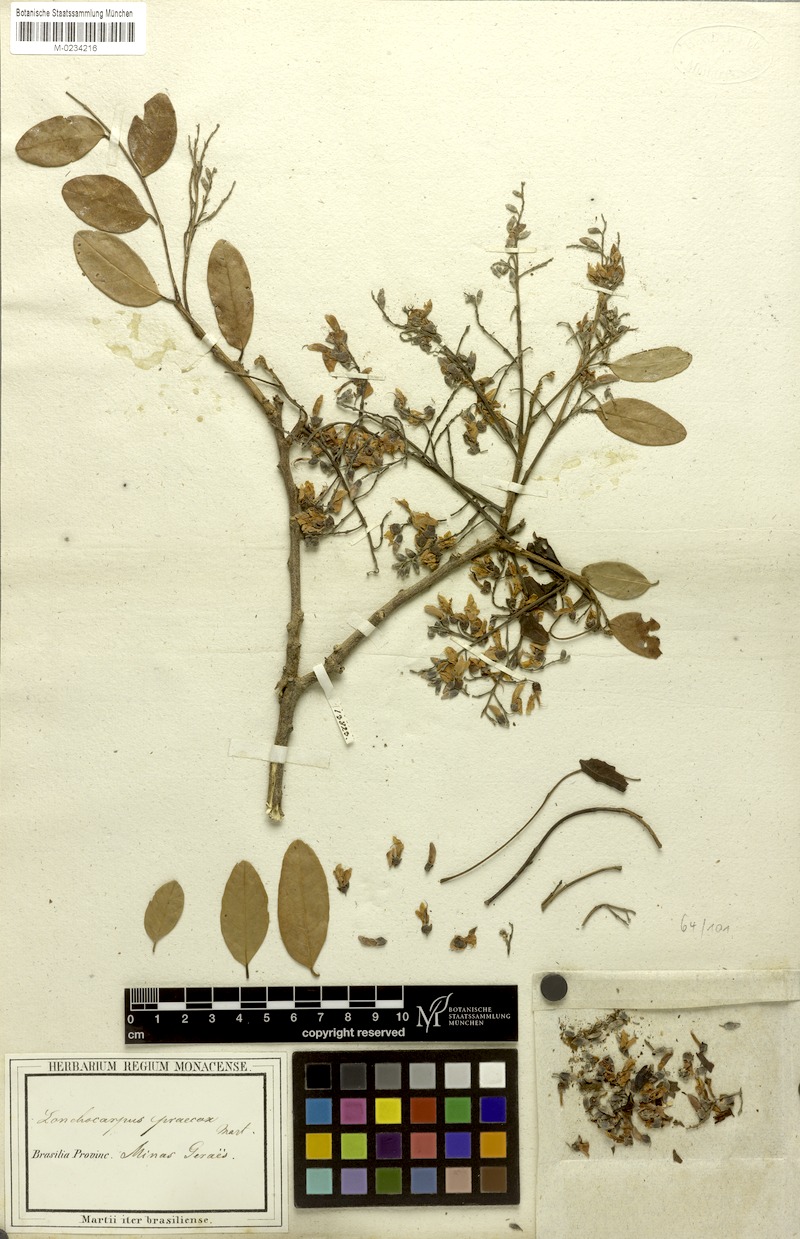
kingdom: Plantae
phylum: Tracheophyta
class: Magnoliopsida
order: Fabales
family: Fabaceae
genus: Lonchocarpus
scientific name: Lonchocarpus praecox
